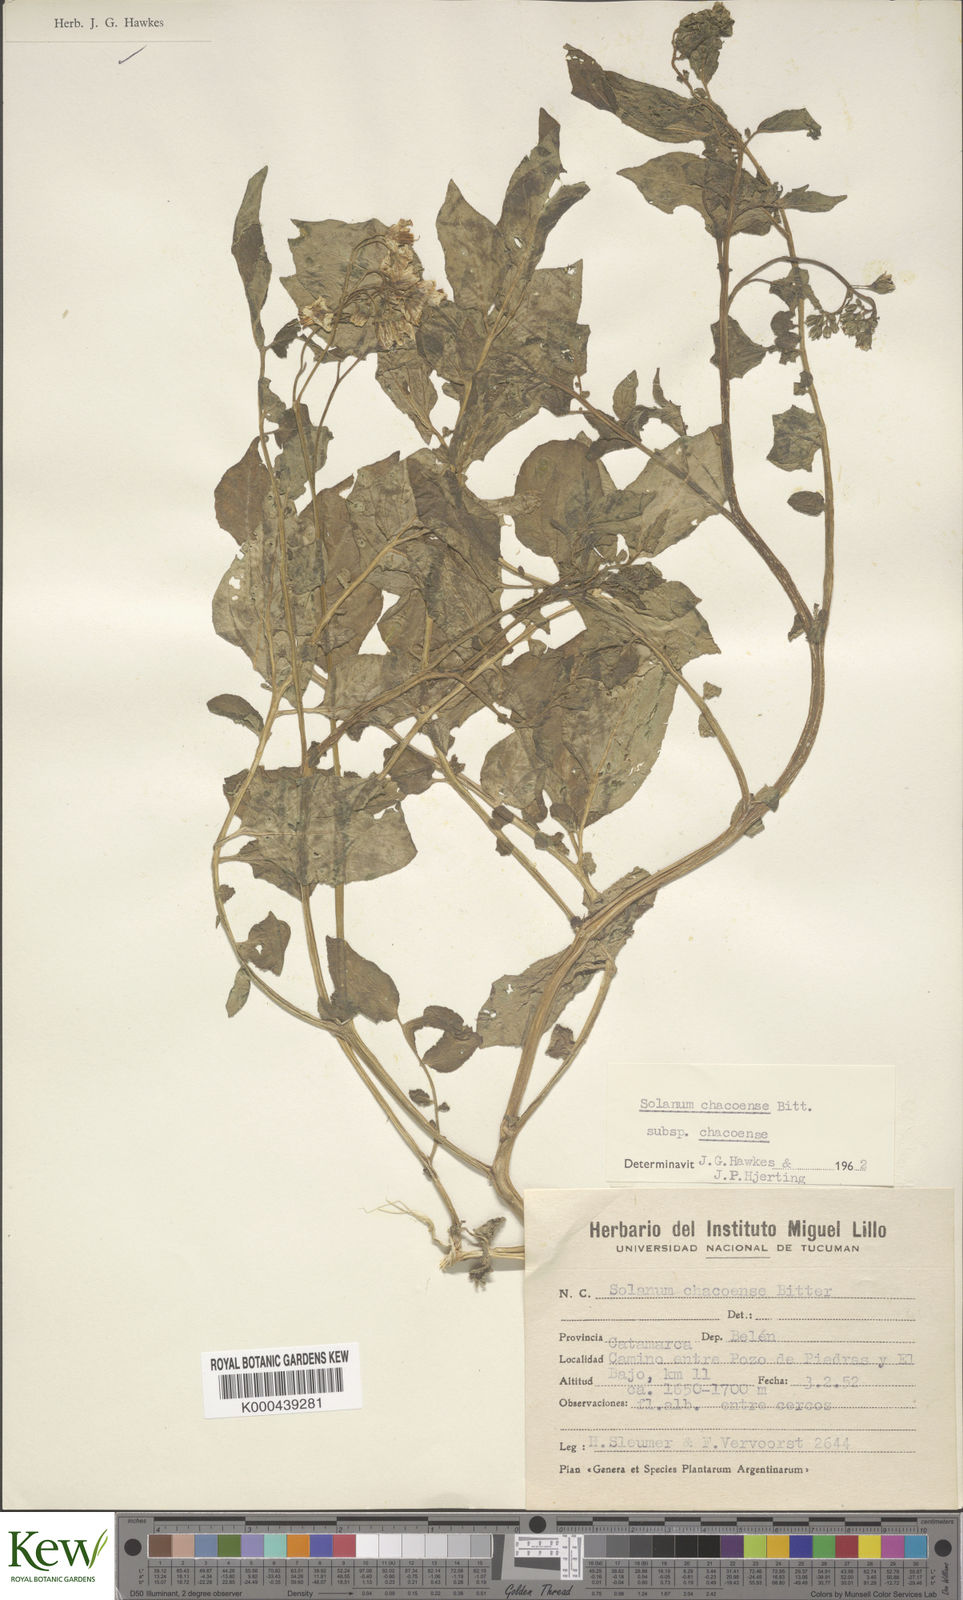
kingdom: Plantae
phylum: Tracheophyta
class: Magnoliopsida
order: Solanales
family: Solanaceae
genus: Solanum
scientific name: Solanum chacoense
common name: Chaco potato
